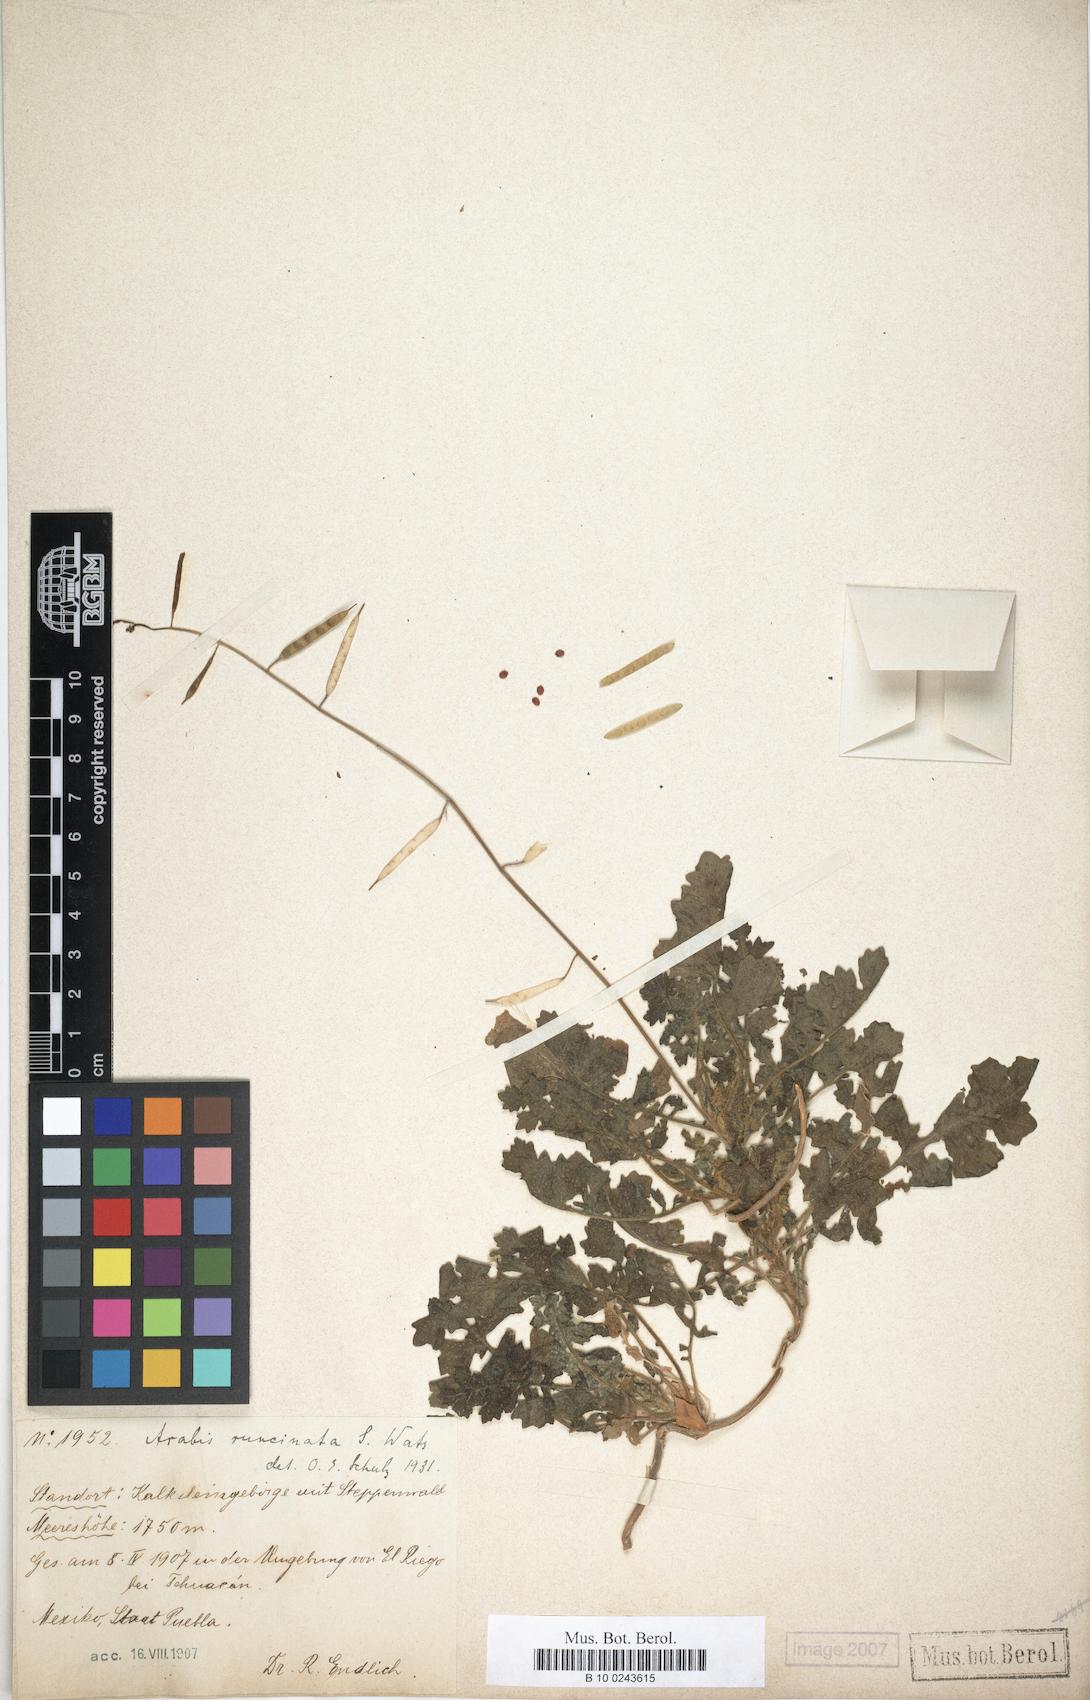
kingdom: Plantae
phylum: Tracheophyta
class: Magnoliopsida
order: Brassicales
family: Brassicaceae
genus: Phravenia
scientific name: Phravenia viereckii
